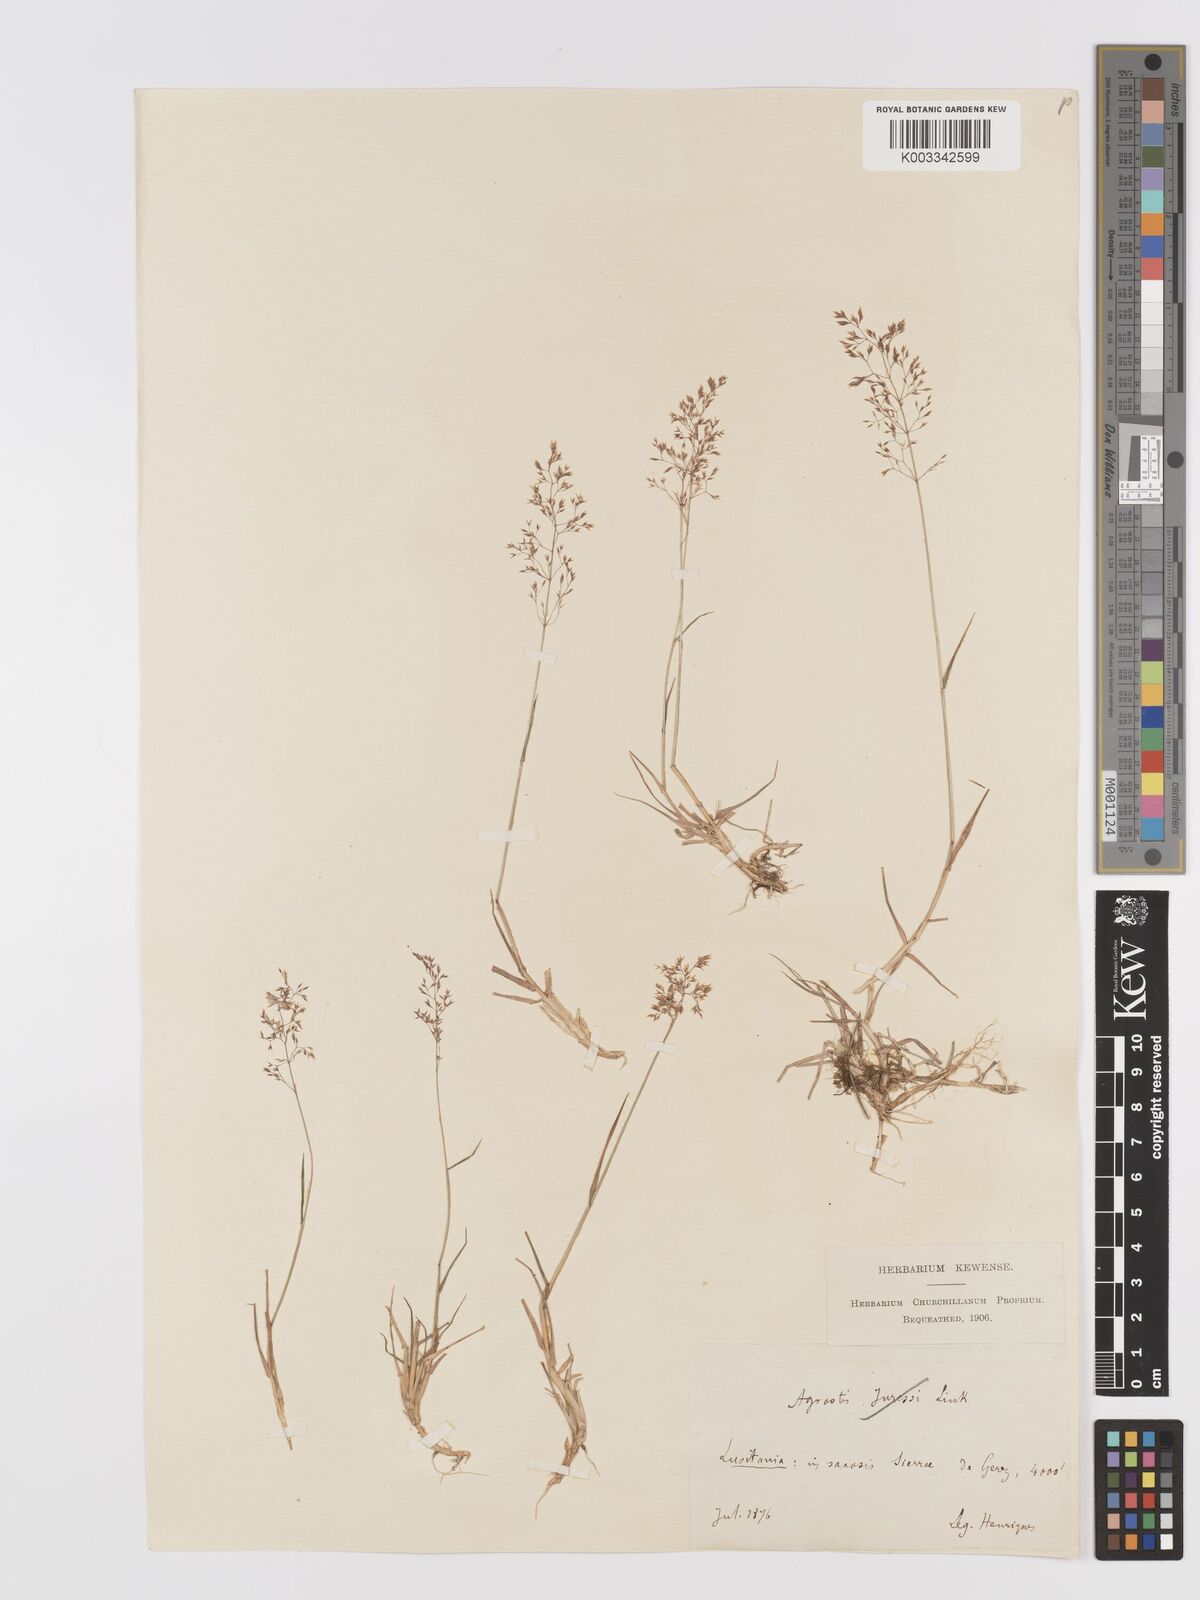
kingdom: Plantae
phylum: Tracheophyta
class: Liliopsida
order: Poales
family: Poaceae
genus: Agrostis
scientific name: Agrostis
